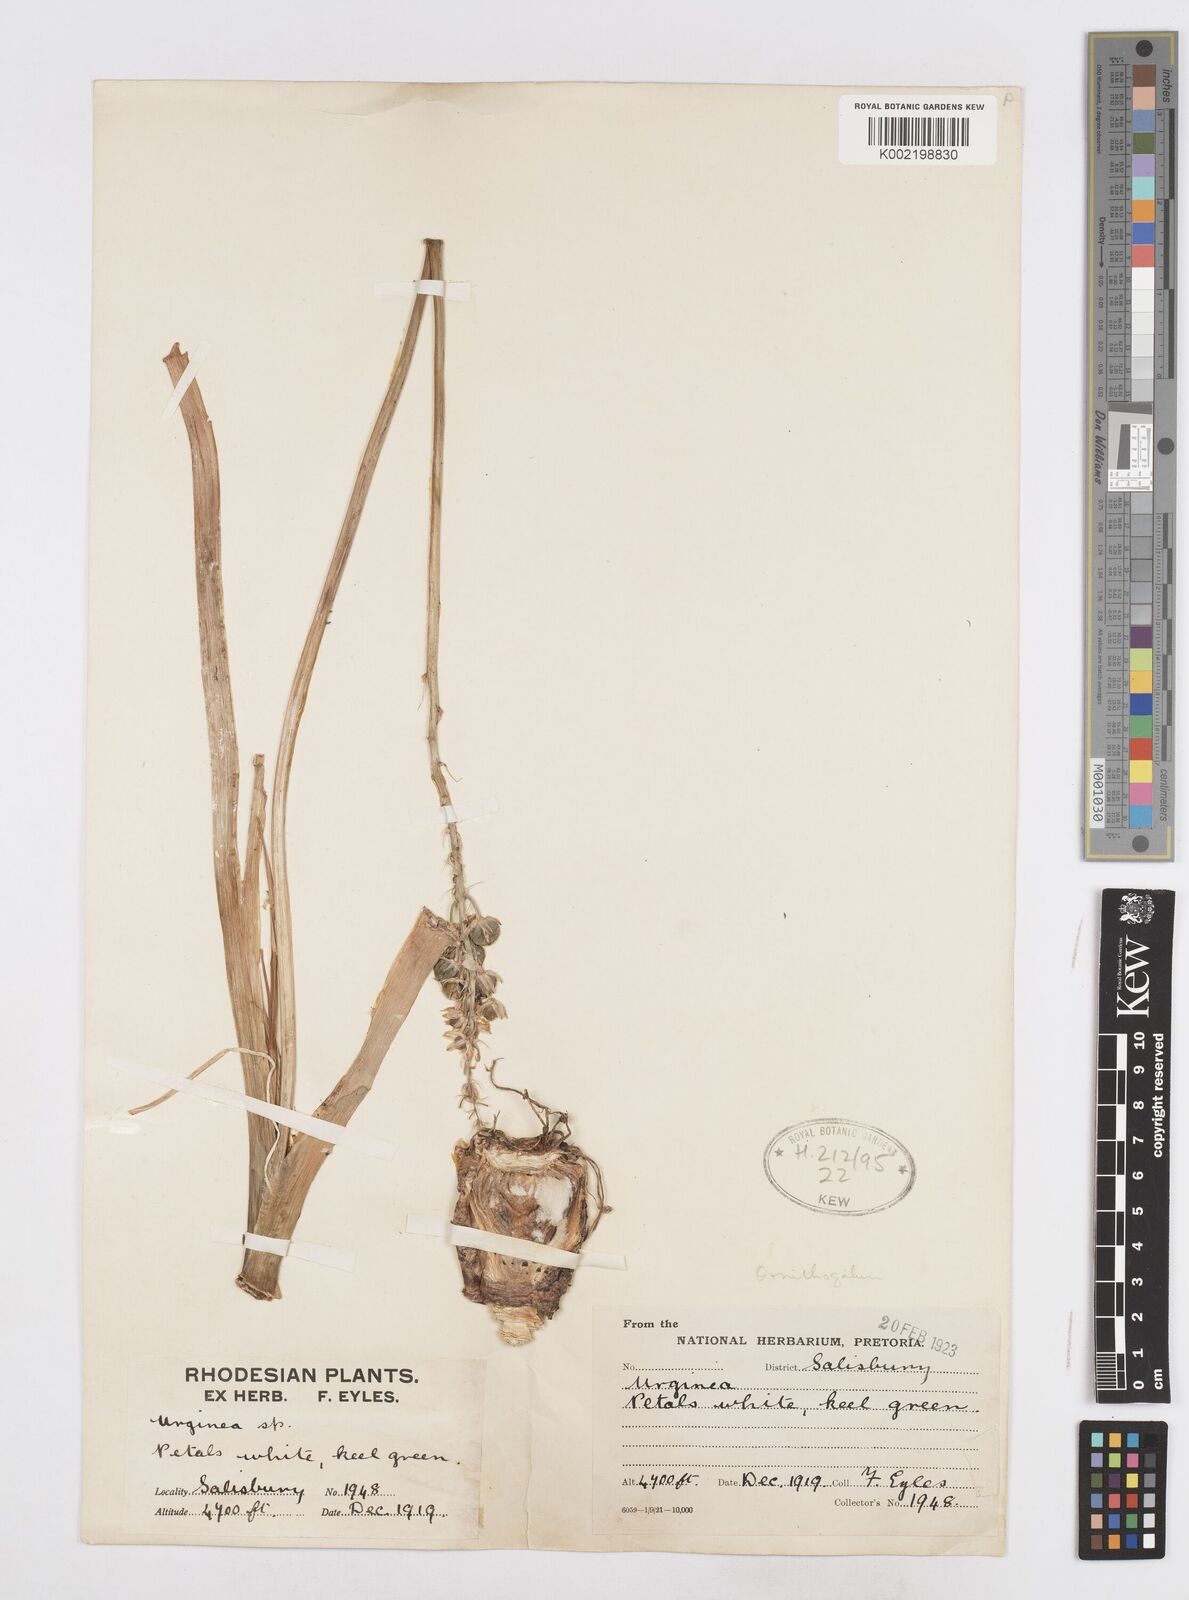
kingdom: Plantae
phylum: Tracheophyta
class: Liliopsida
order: Asparagales
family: Asparagaceae
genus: Drimia
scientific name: Drimia
